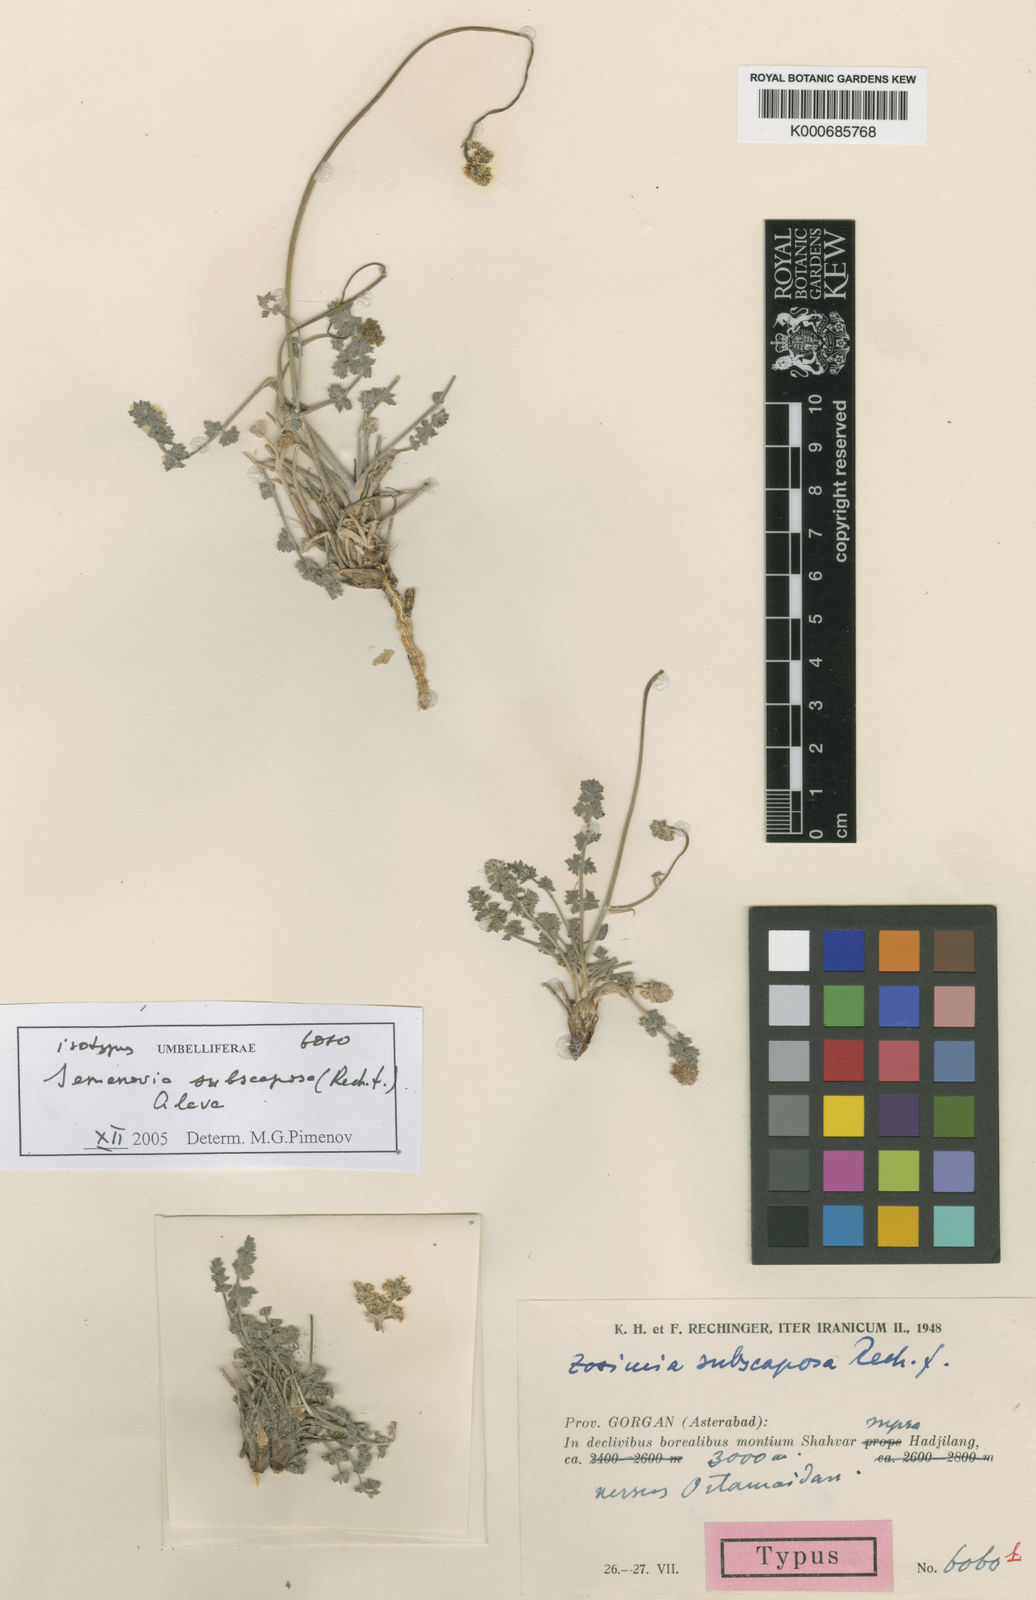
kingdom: Plantae
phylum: Tracheophyta
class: Magnoliopsida
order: Apiales
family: Apiaceae
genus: Semenovia
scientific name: Semenovia subscaposa
